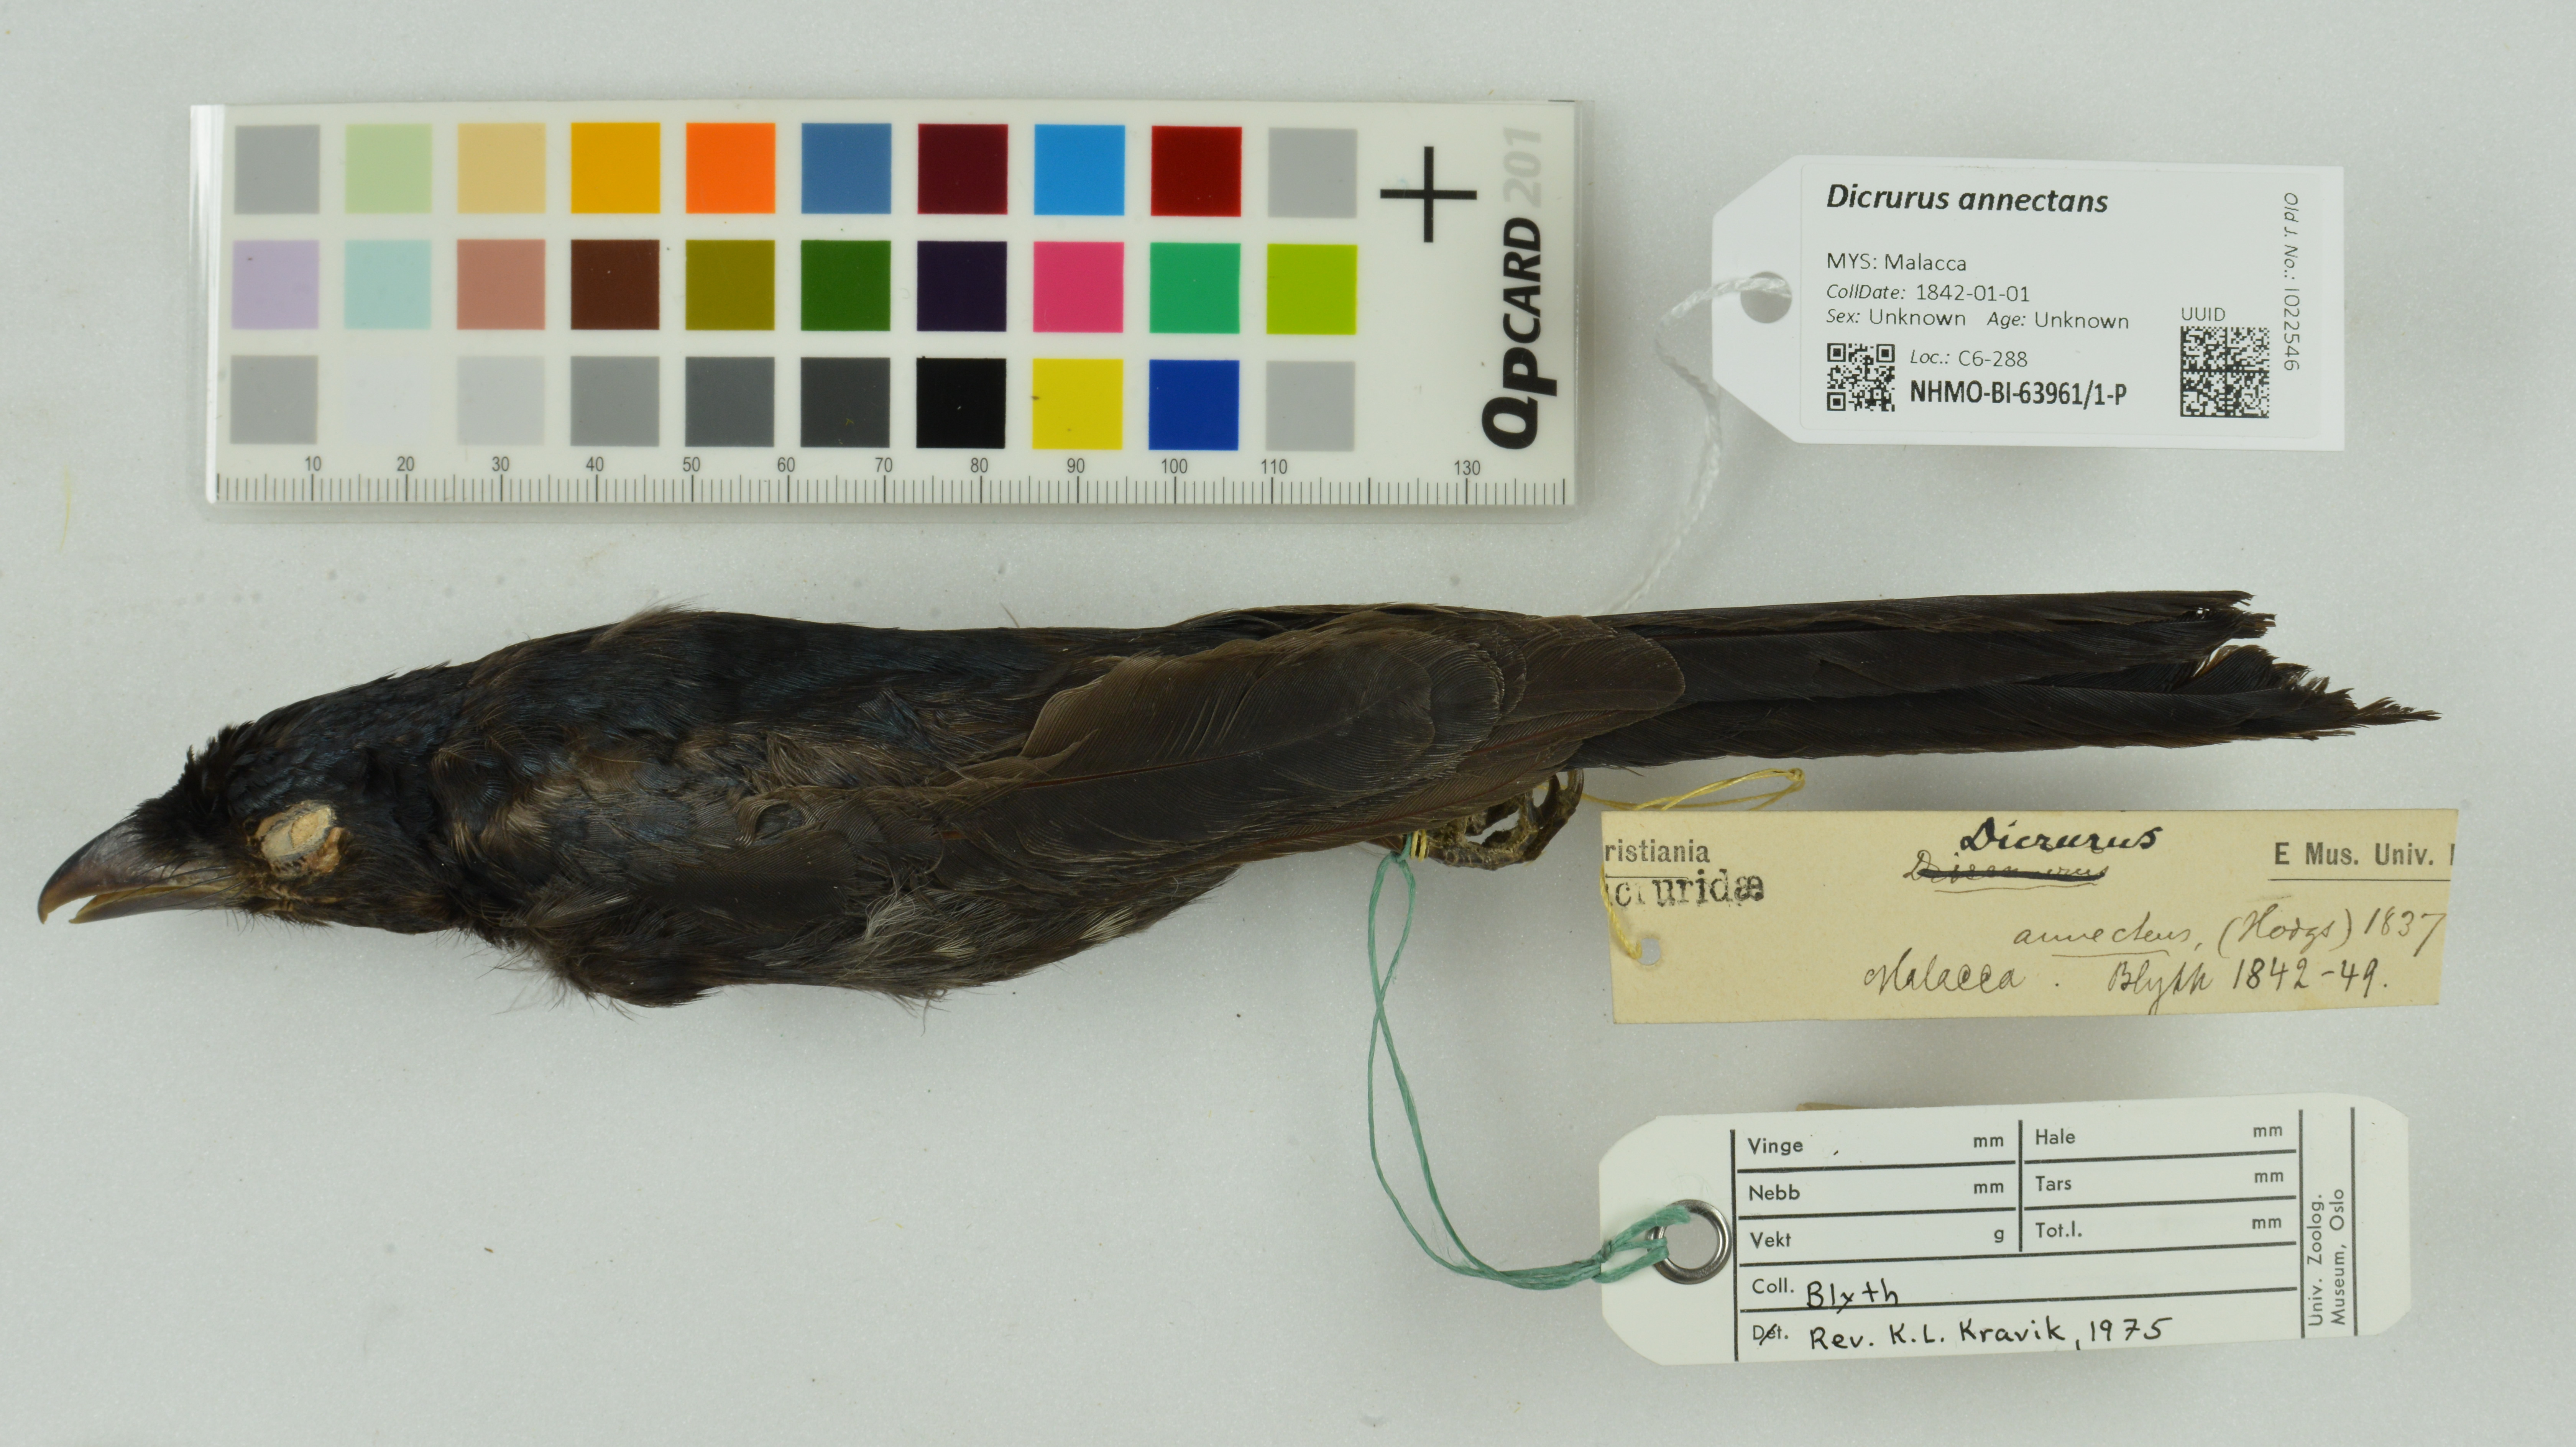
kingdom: Animalia
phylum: Chordata
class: Aves
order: Passeriformes
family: Dicruridae
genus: Dicrurus
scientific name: Dicrurus annectens
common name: Crow-billed drongo
